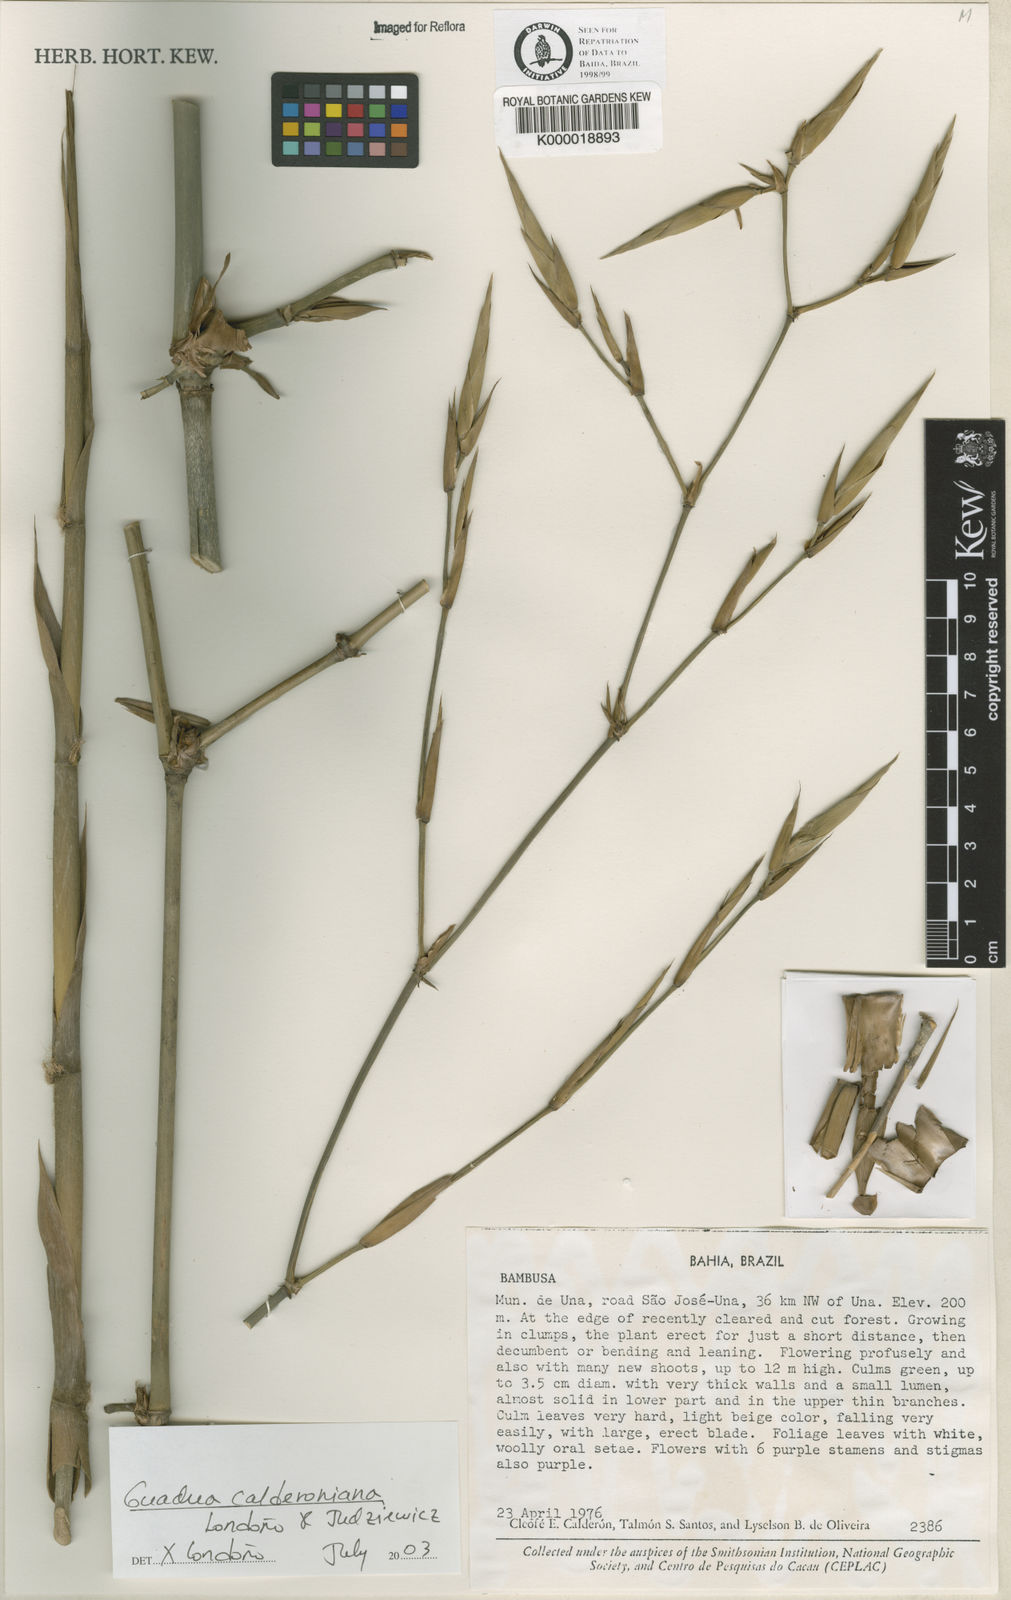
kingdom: Plantae
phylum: Tracheophyta
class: Liliopsida
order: Poales
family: Poaceae
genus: Guadua
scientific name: Guadua
